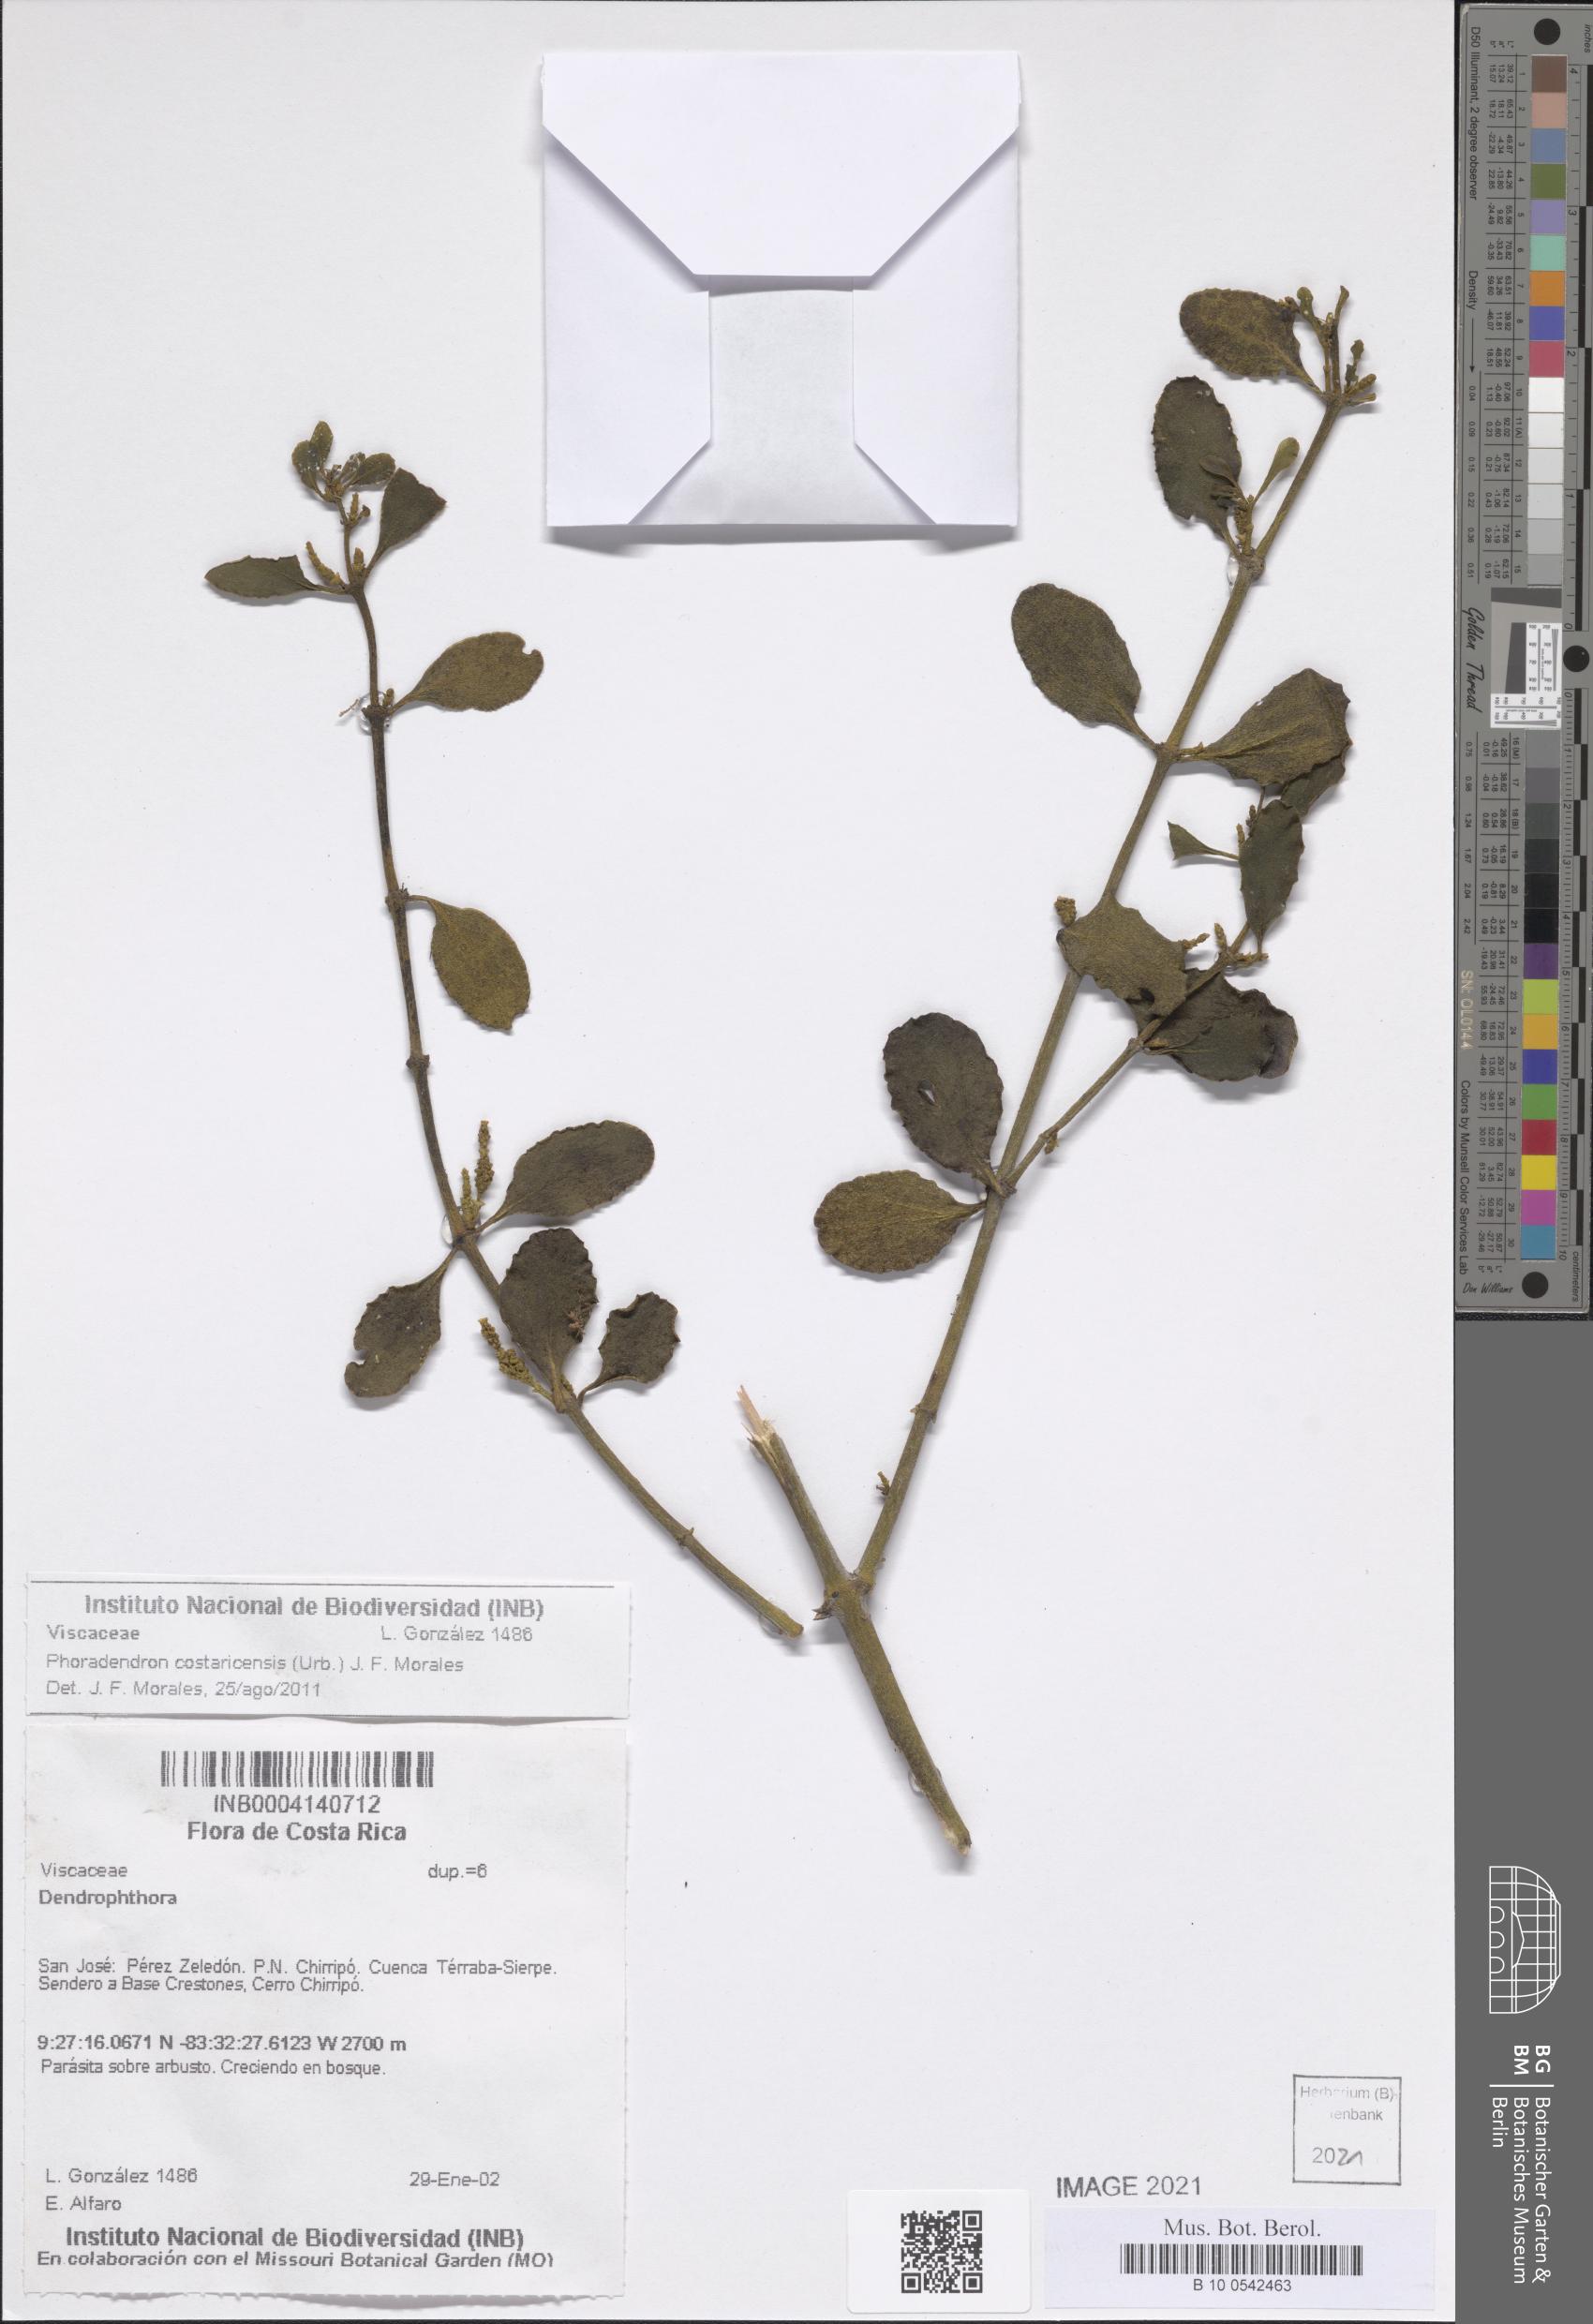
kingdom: Plantae
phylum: Tracheophyta
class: Magnoliopsida
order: Santalales
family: Viscaceae
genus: Phoradendron
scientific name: Phoradendron costaricense
